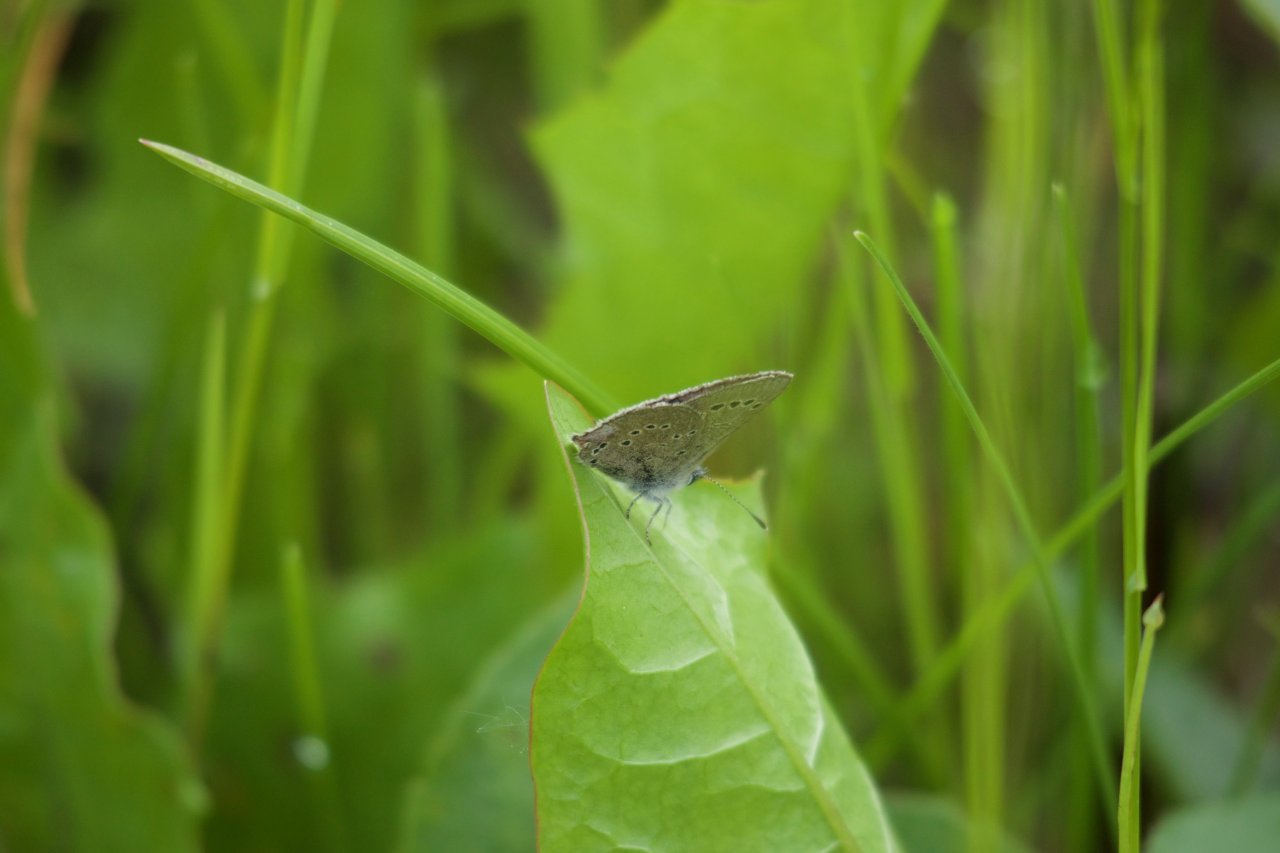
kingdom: Animalia
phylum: Arthropoda
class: Insecta
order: Lepidoptera
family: Lycaenidae
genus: Glaucopsyche
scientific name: Glaucopsyche lygdamus
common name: Silvery Blue
